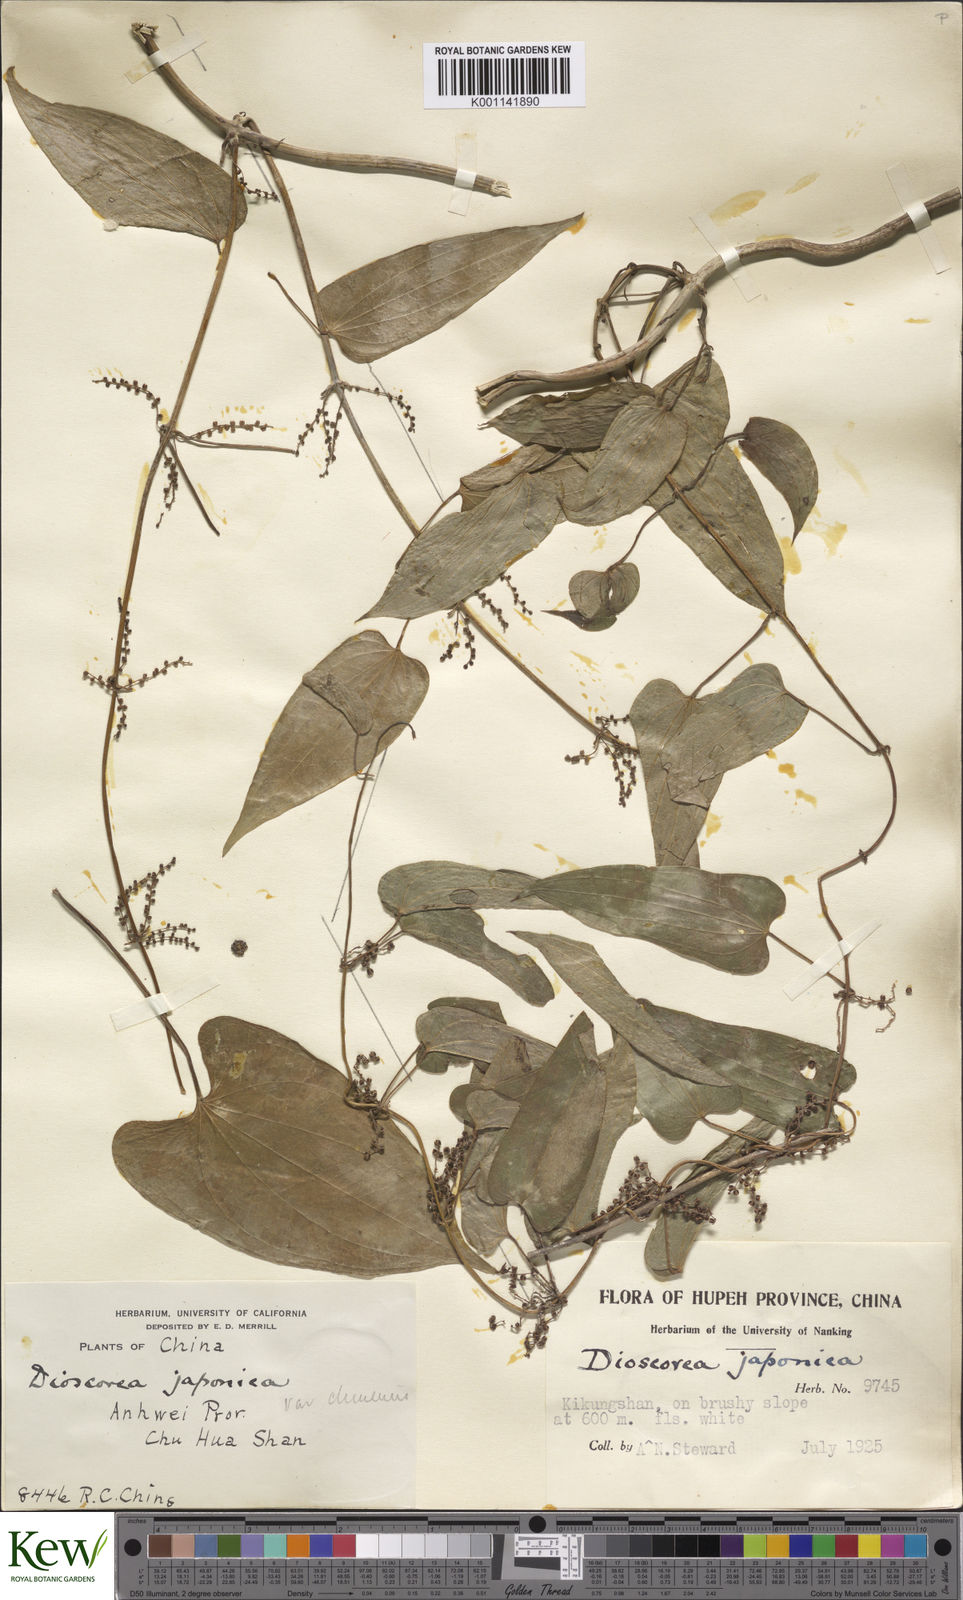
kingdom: Plantae
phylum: Tracheophyta
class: Liliopsida
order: Dioscoreales
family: Dioscoreaceae
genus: Dioscorea
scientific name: Dioscorea japonica
